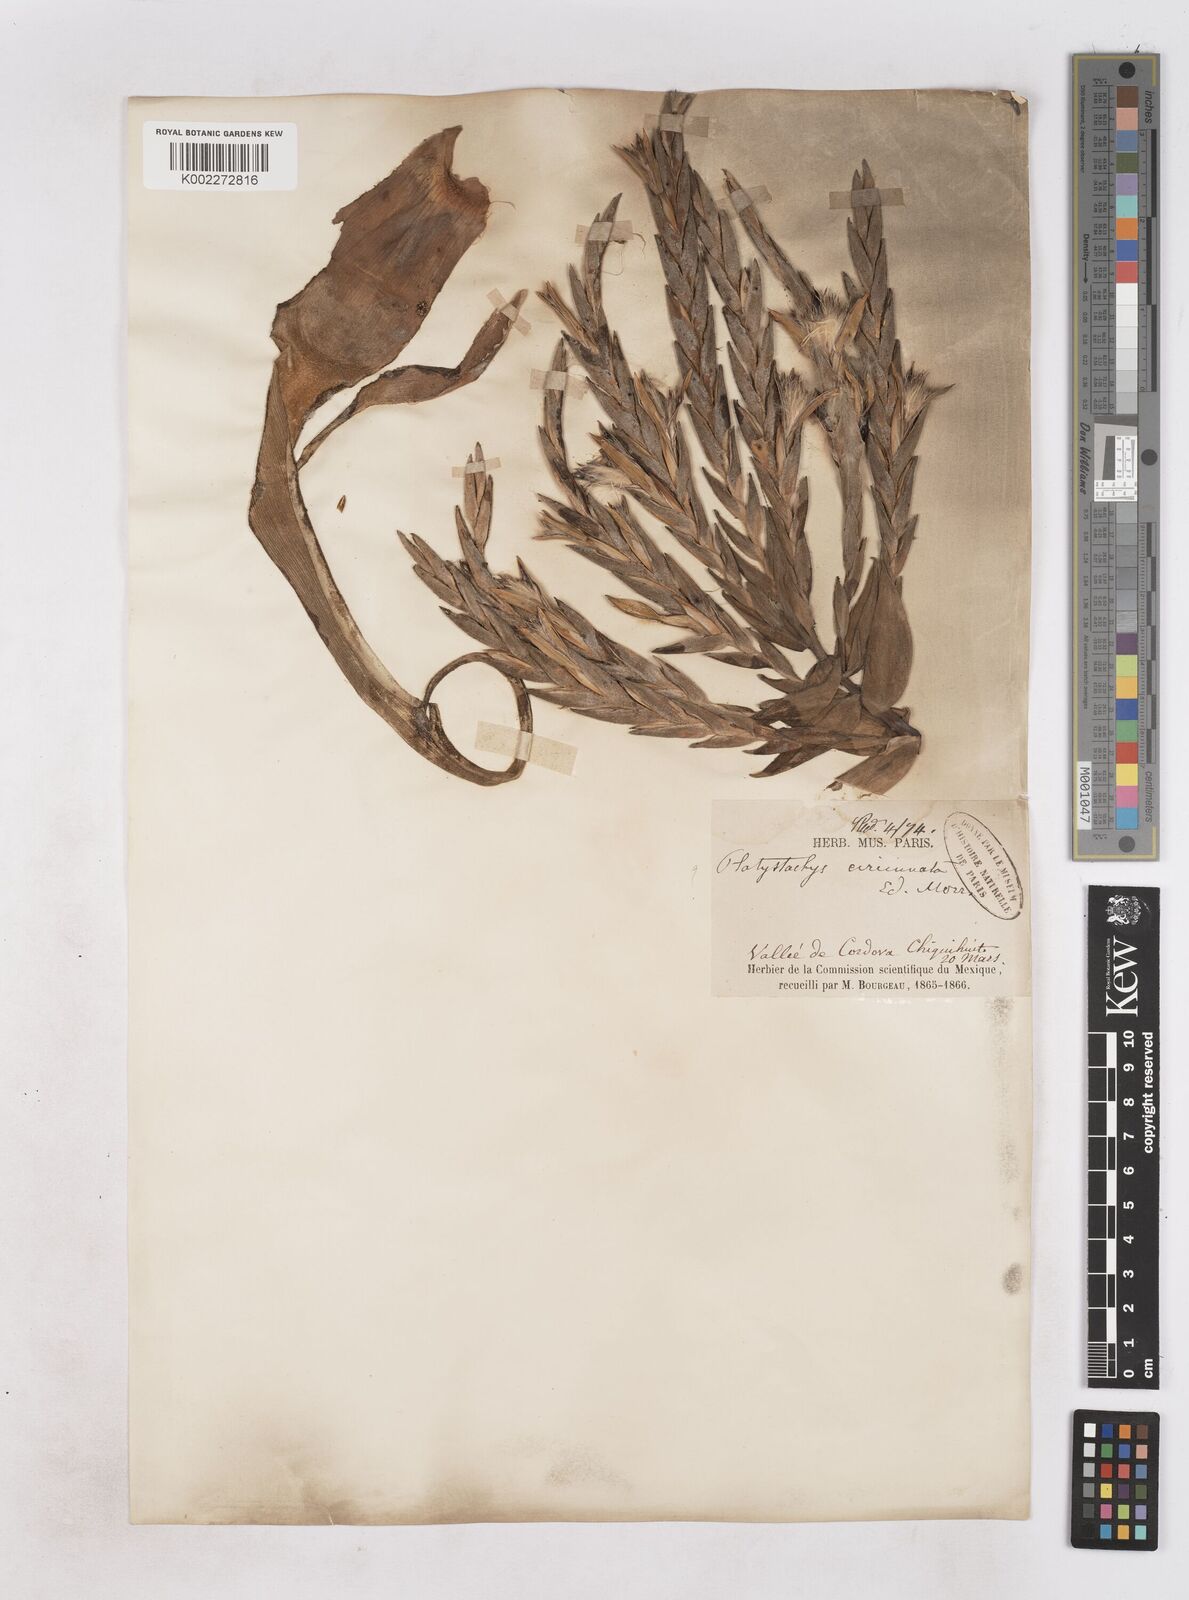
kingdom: Plantae
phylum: Tracheophyta
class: Liliopsida
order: Poales
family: Bromeliaceae
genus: Tillandsia
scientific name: Tillandsia streptophylla
